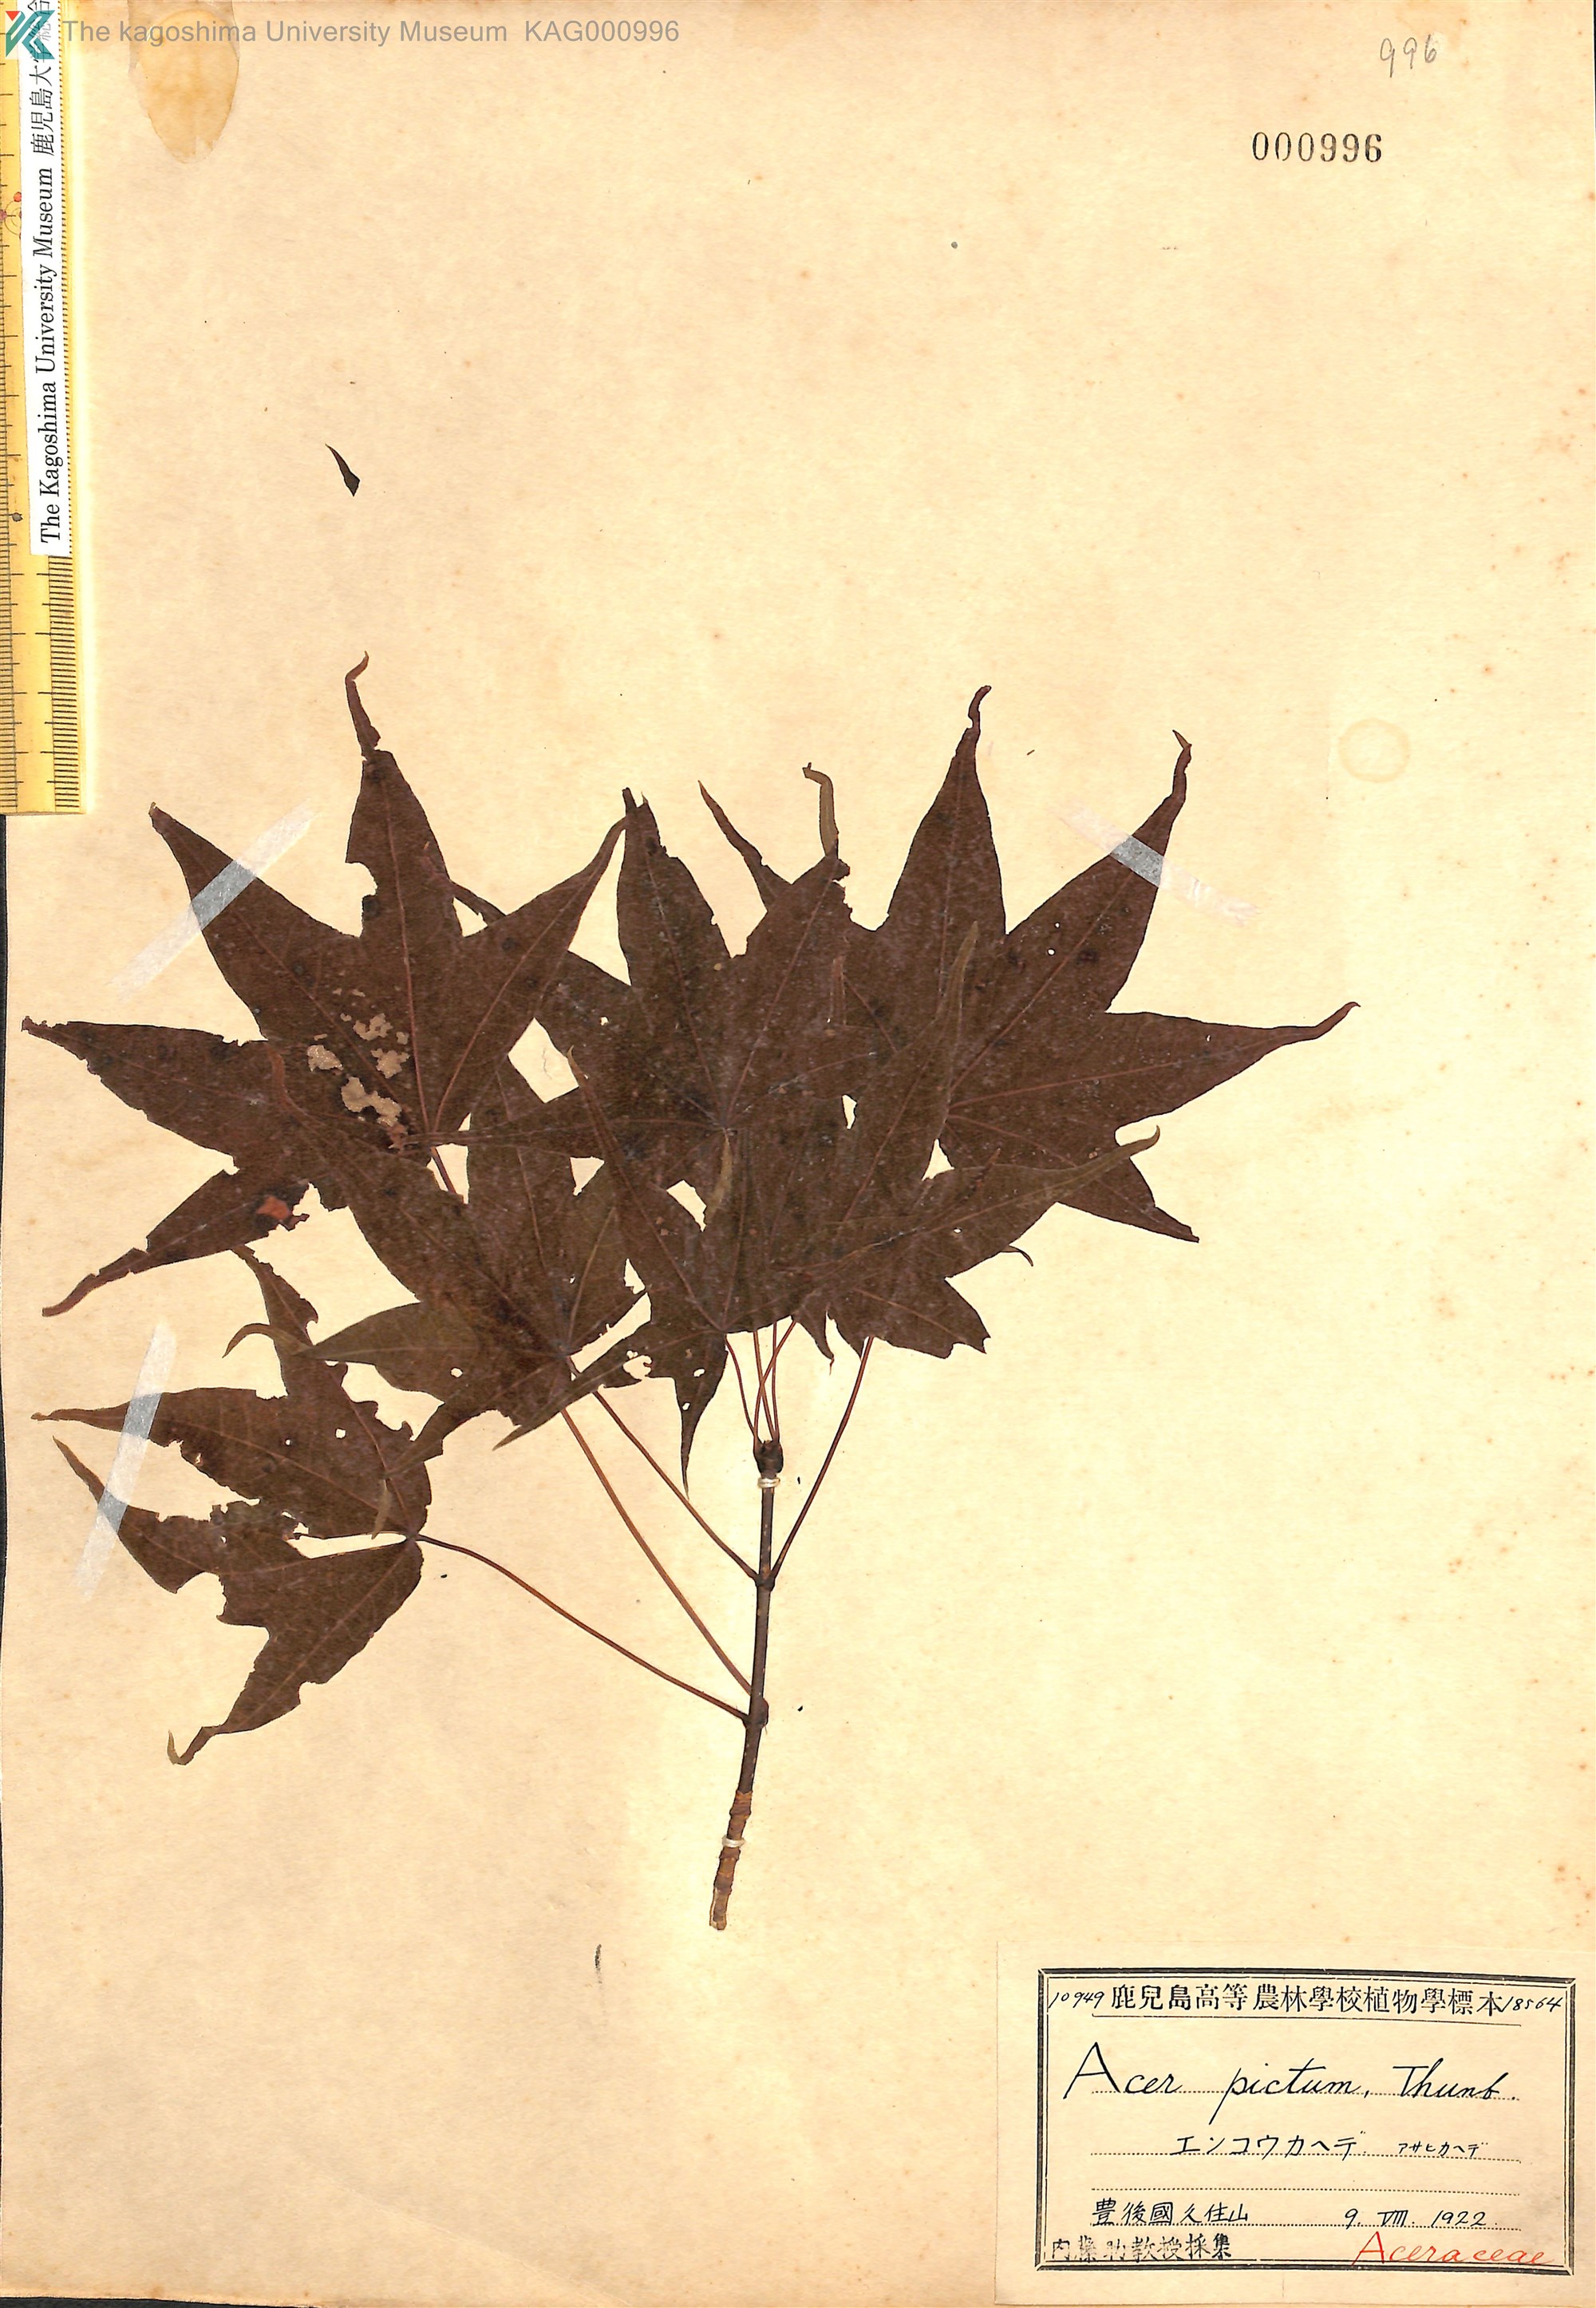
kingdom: Plantae
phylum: Tracheophyta
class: Magnoliopsida
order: Sapindales
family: Sapindaceae
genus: Acer
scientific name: Acer pictum
